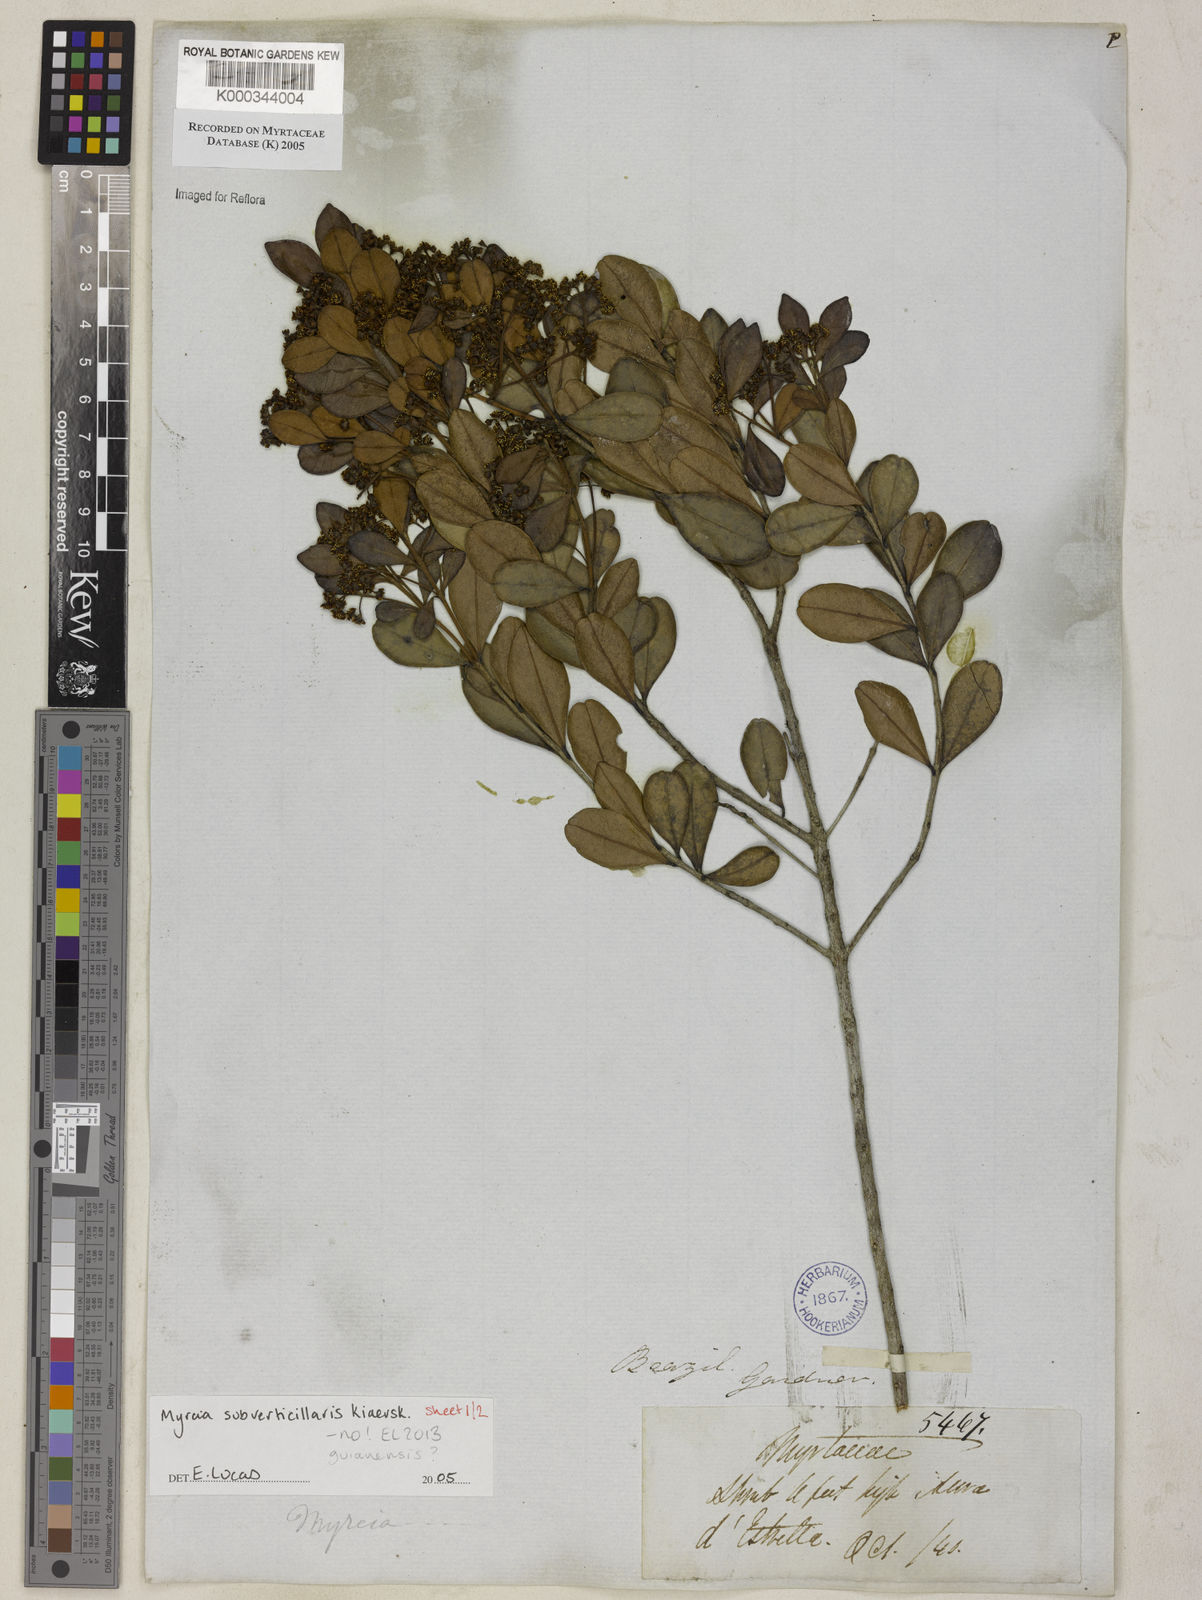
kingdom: Plantae
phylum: Tracheophyta
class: Magnoliopsida
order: Myrtales
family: Myrtaceae
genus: Myrcia
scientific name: Myrcia
